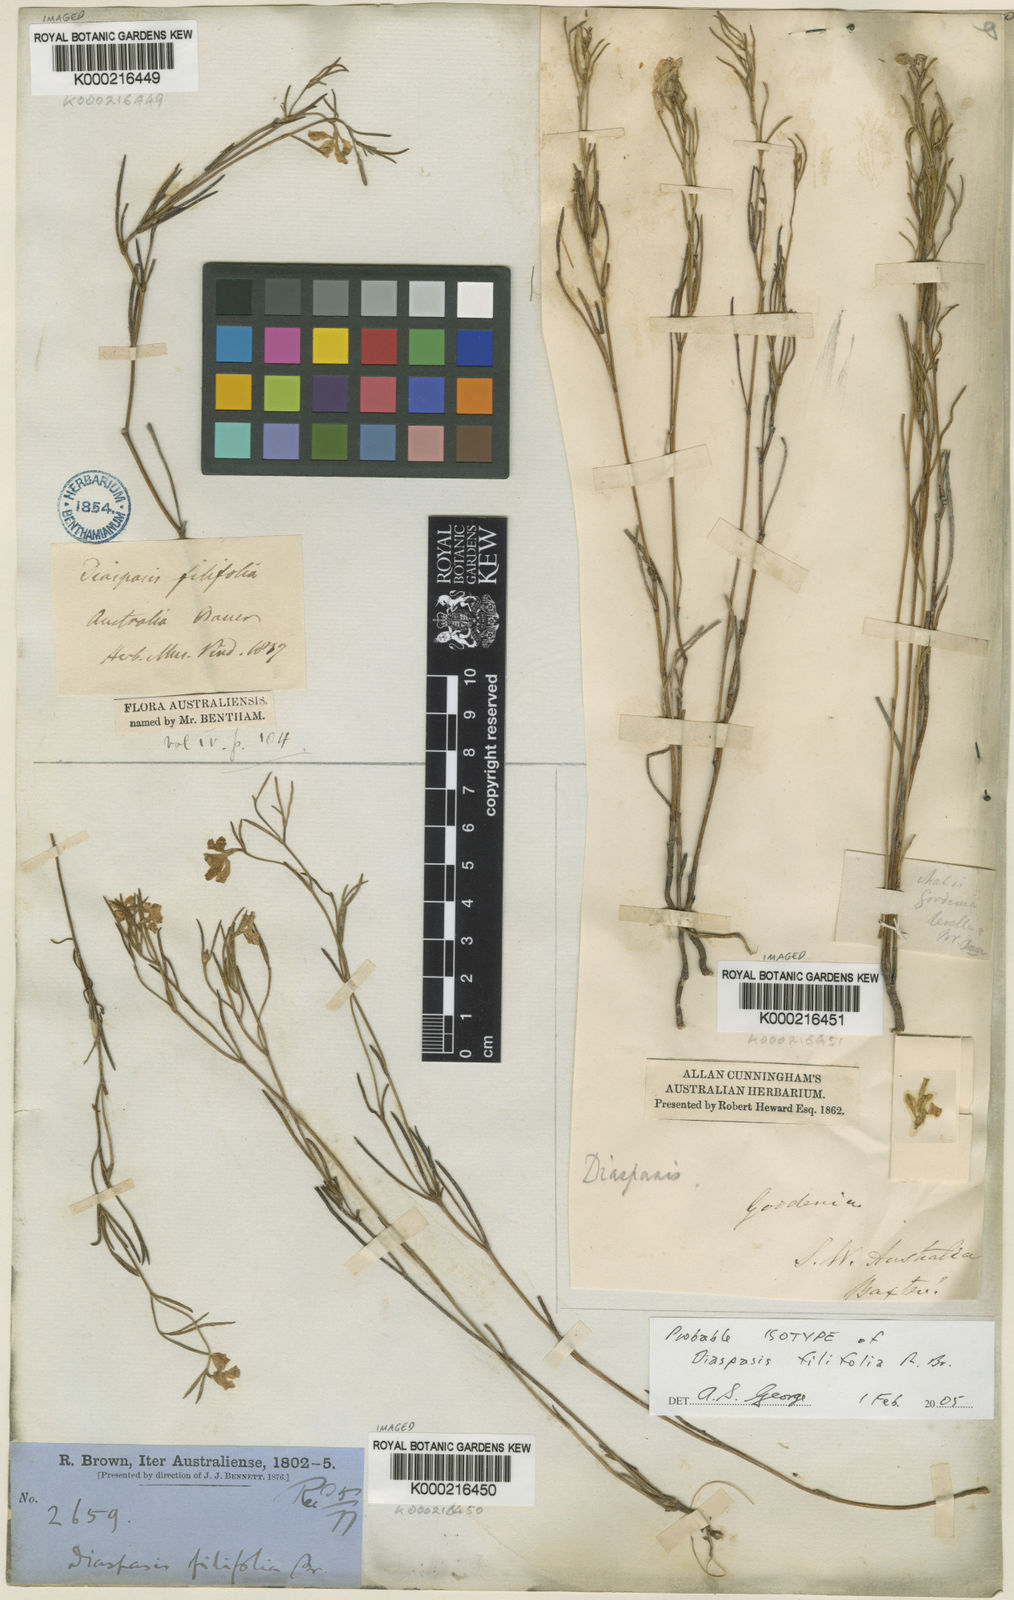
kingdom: Plantae
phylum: Tracheophyta
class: Magnoliopsida
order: Asterales
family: Goodeniaceae
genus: Scaevola
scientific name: Scaevola filifolia
